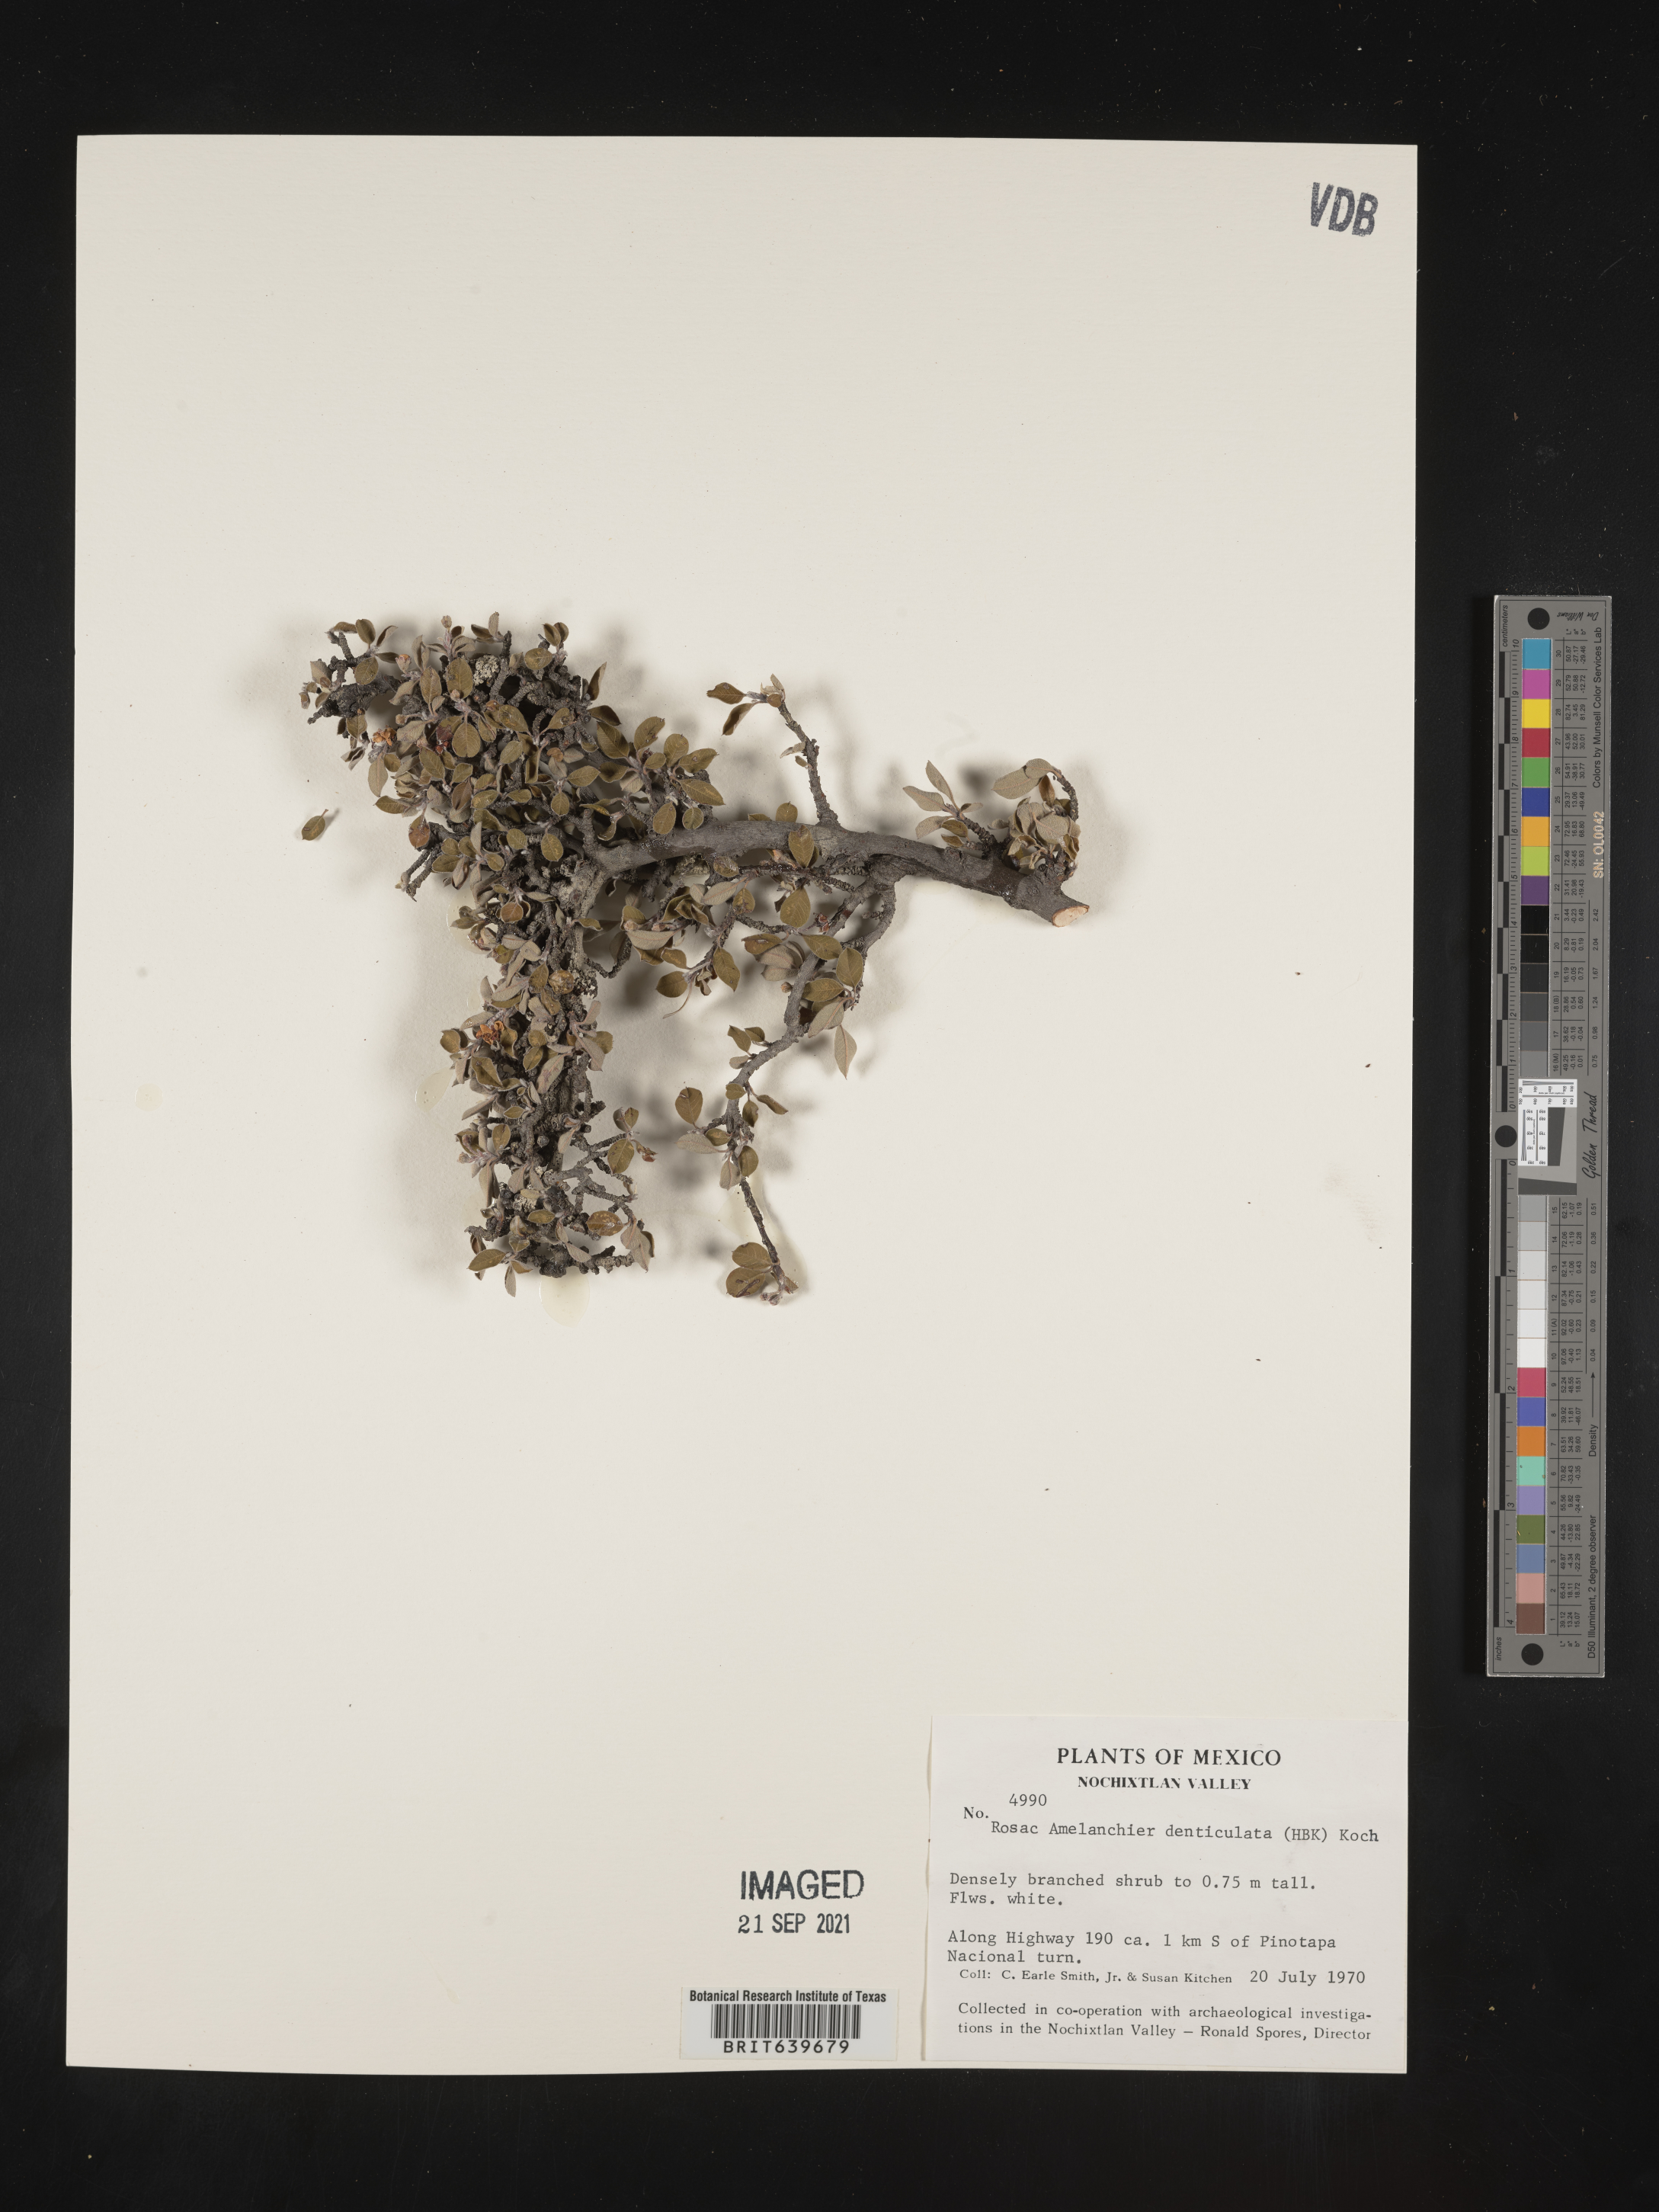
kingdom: Plantae
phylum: Tracheophyta
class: Magnoliopsida
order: Rosales
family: Rosaceae
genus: Amelanchier
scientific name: Amelanchier
